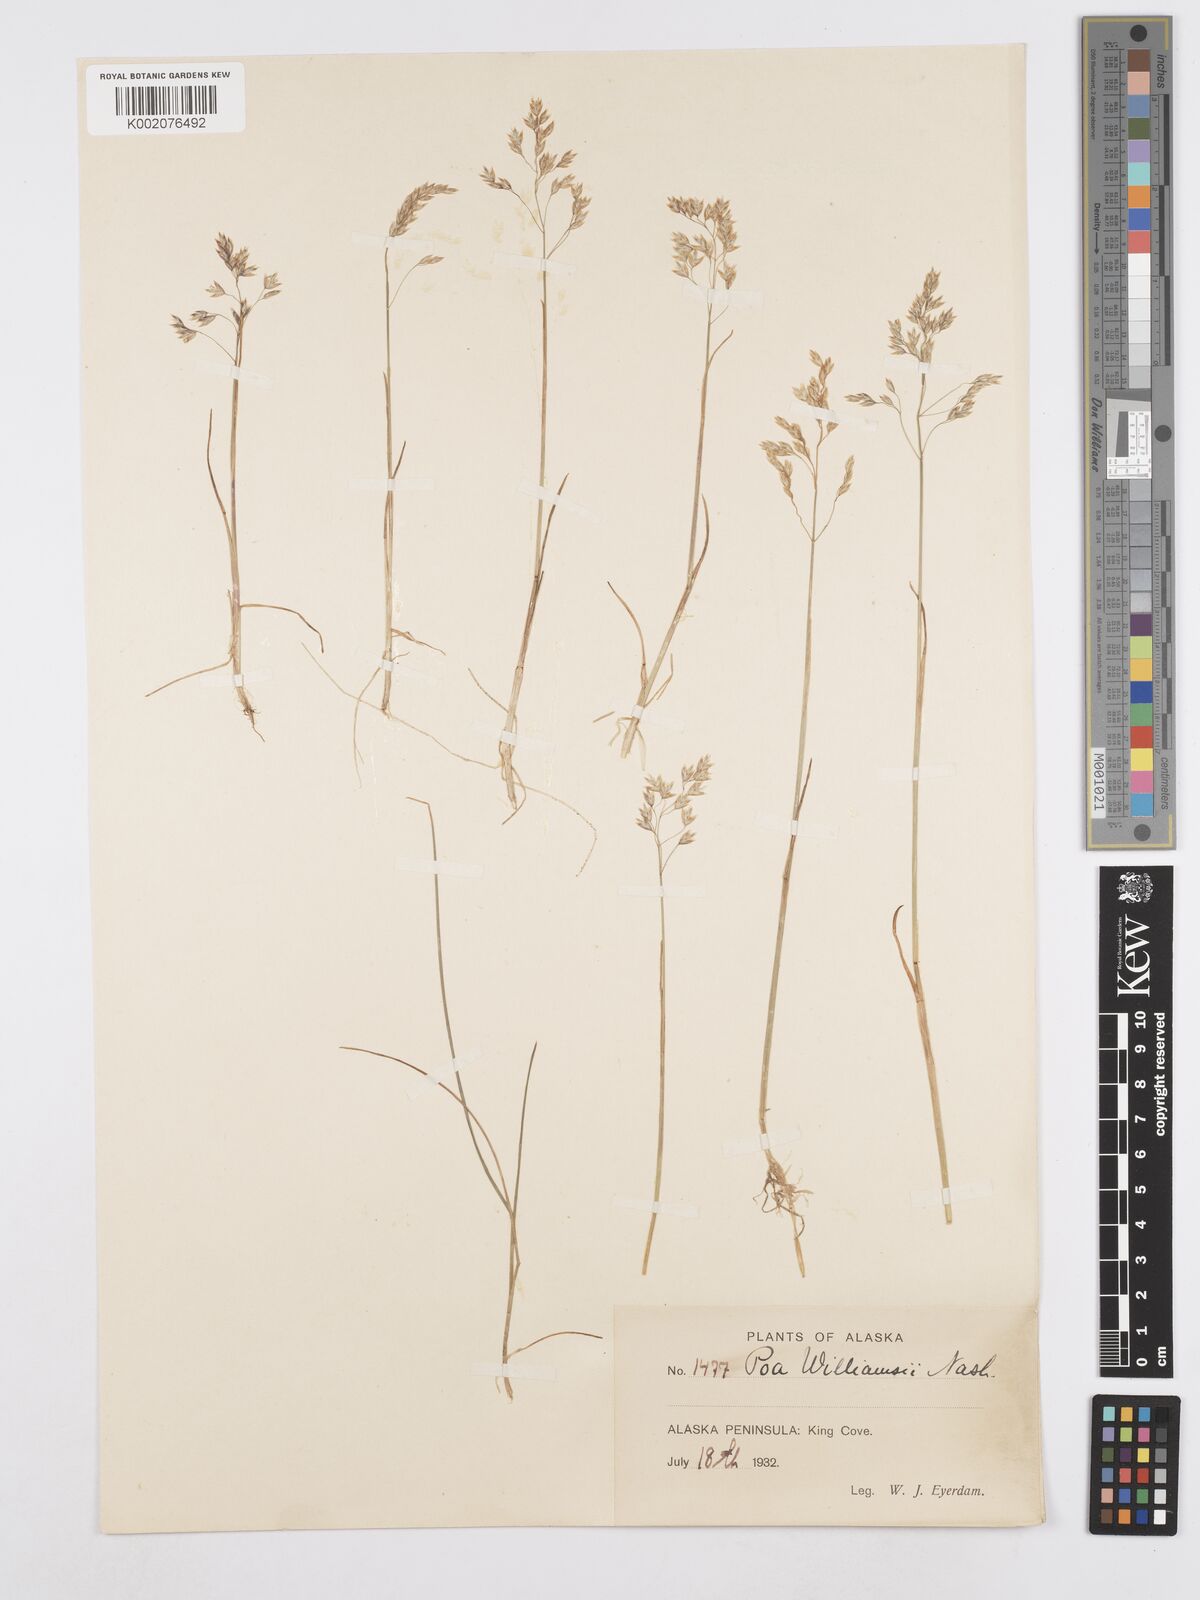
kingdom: Plantae
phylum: Tracheophyta
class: Liliopsida
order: Poales
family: Poaceae
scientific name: Poaceae
